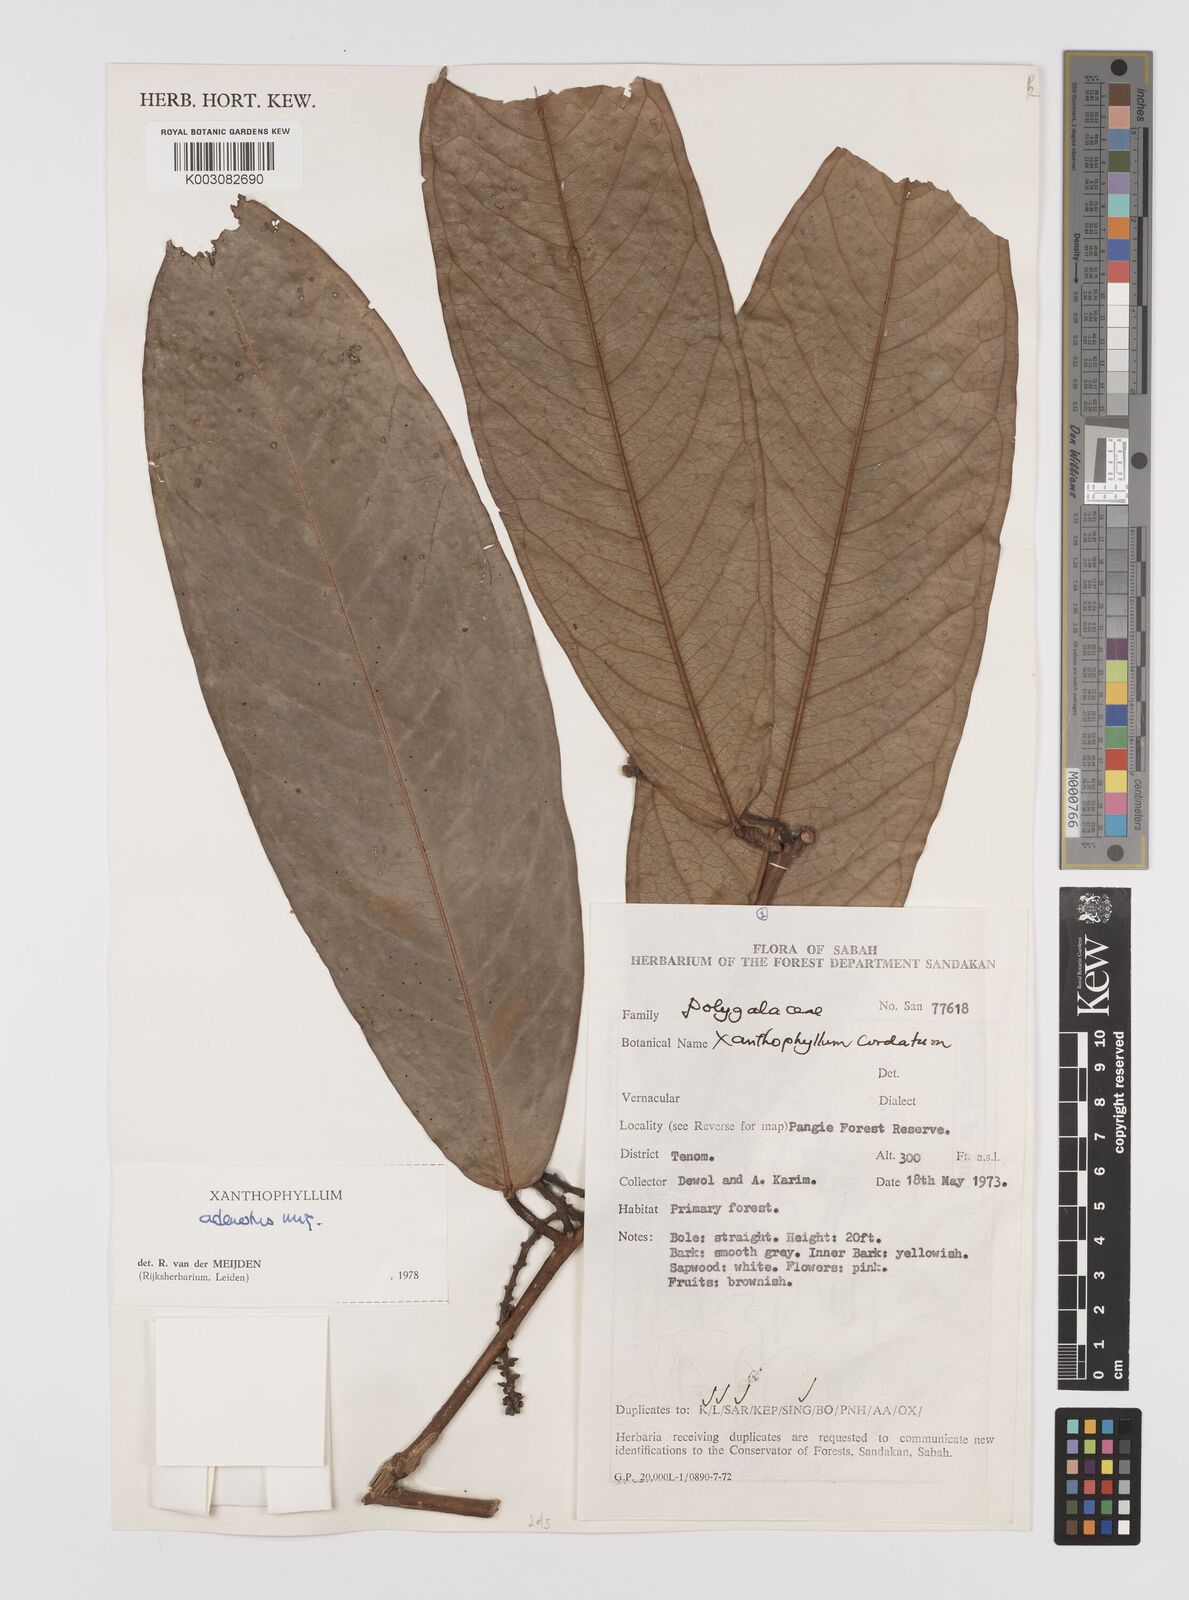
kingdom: Plantae
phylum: Tracheophyta
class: Magnoliopsida
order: Fabales
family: Polygalaceae
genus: Xanthophyllum
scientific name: Xanthophyllum adenotus
